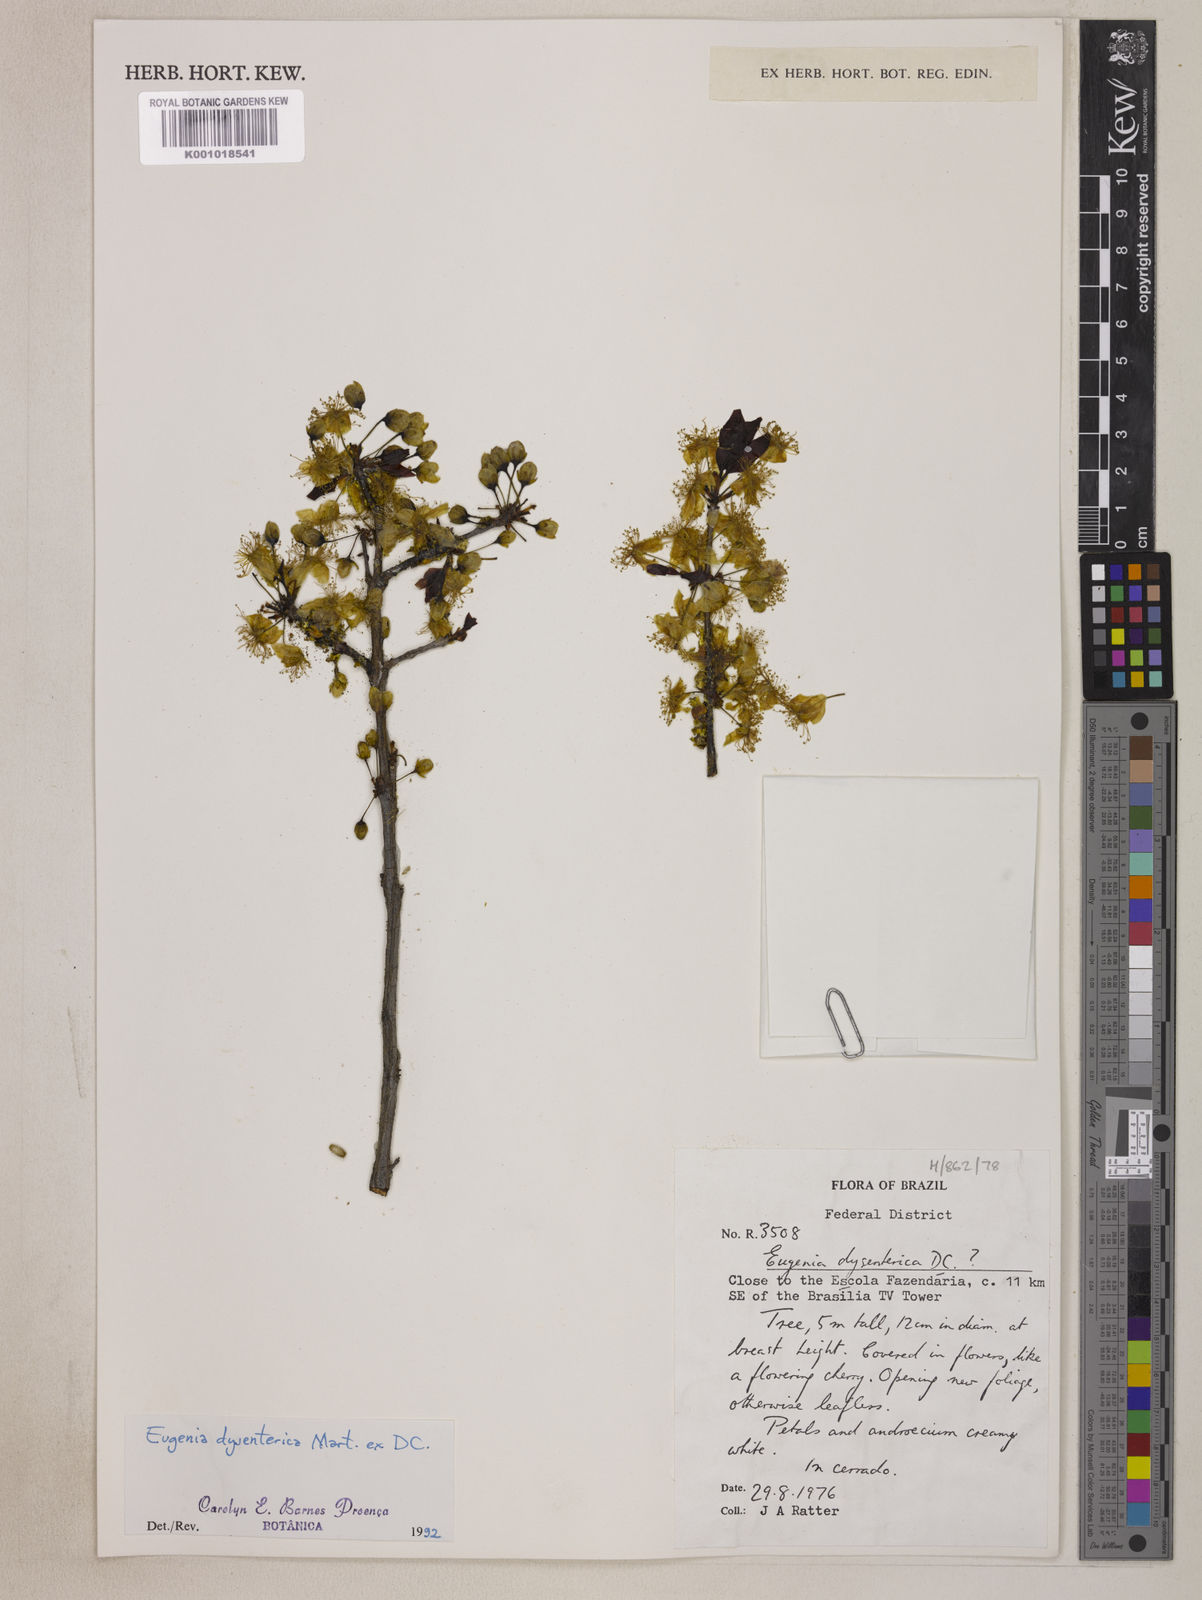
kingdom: Plantae
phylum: Tracheophyta
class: Magnoliopsida
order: Myrtales
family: Myrtaceae
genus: Eugenia
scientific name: Eugenia dysenterica
